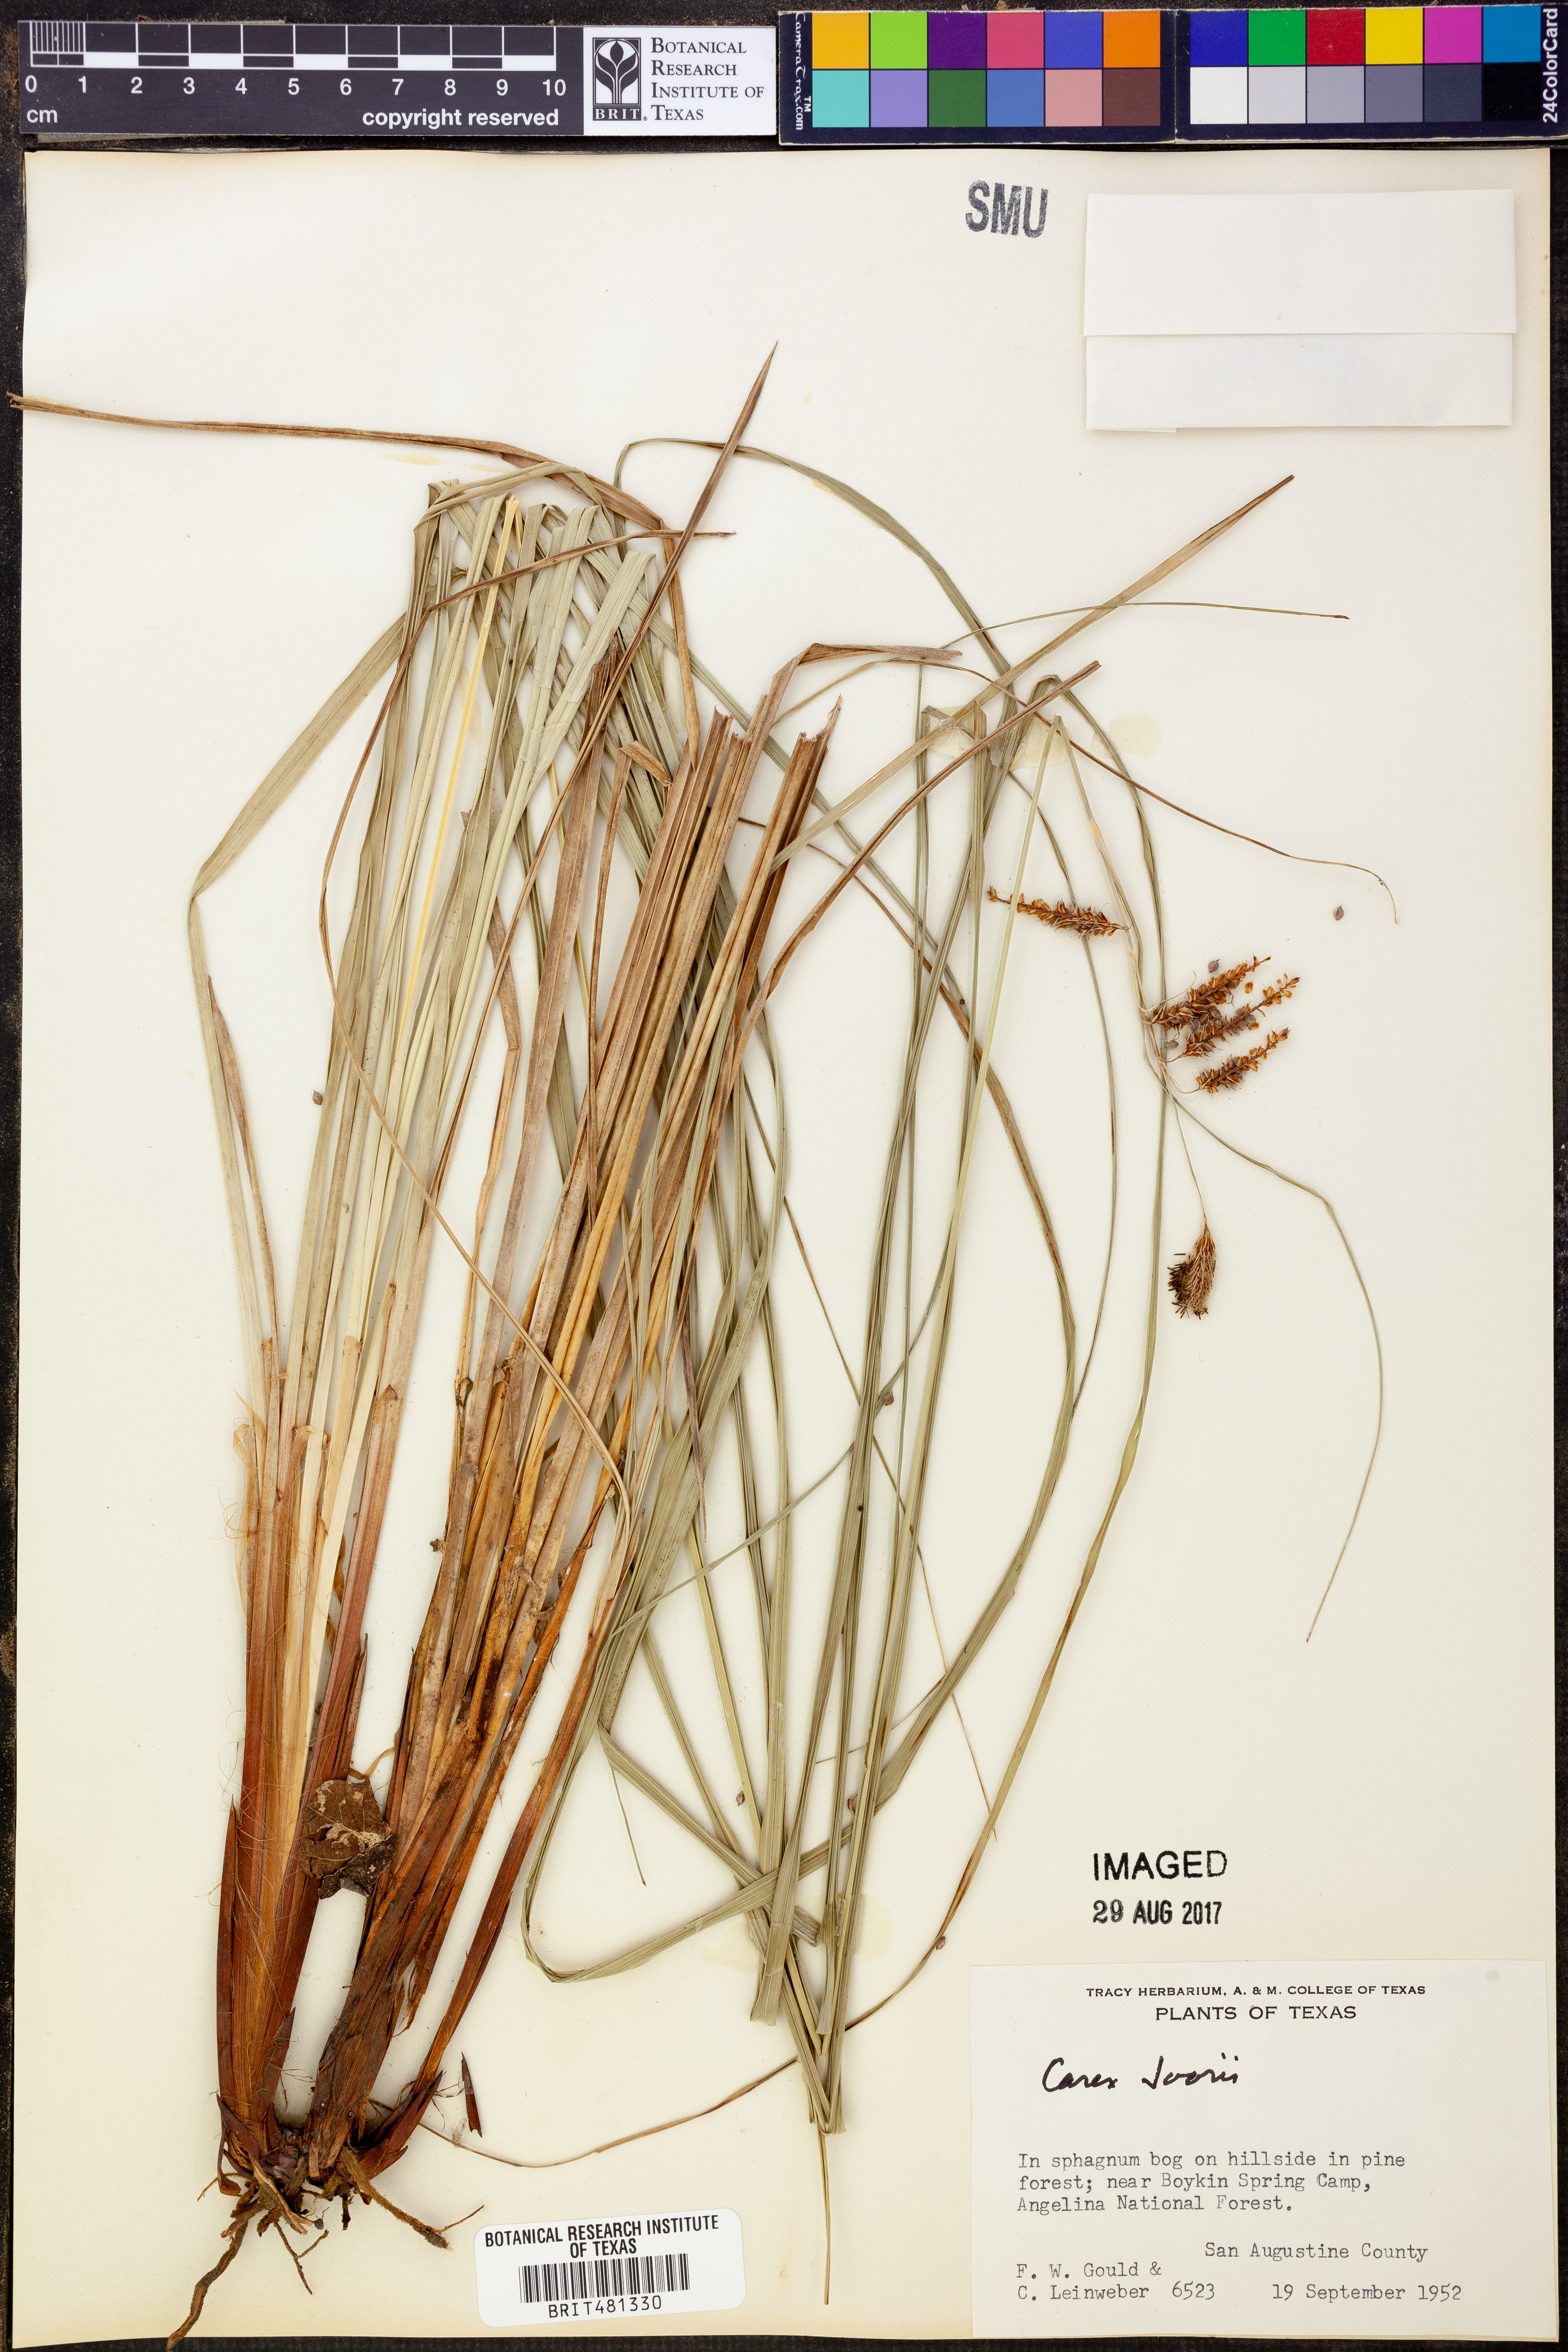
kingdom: Plantae
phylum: Tracheophyta
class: Liliopsida
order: Poales
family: Cyperaceae
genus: Carex
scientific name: Carex joorii
